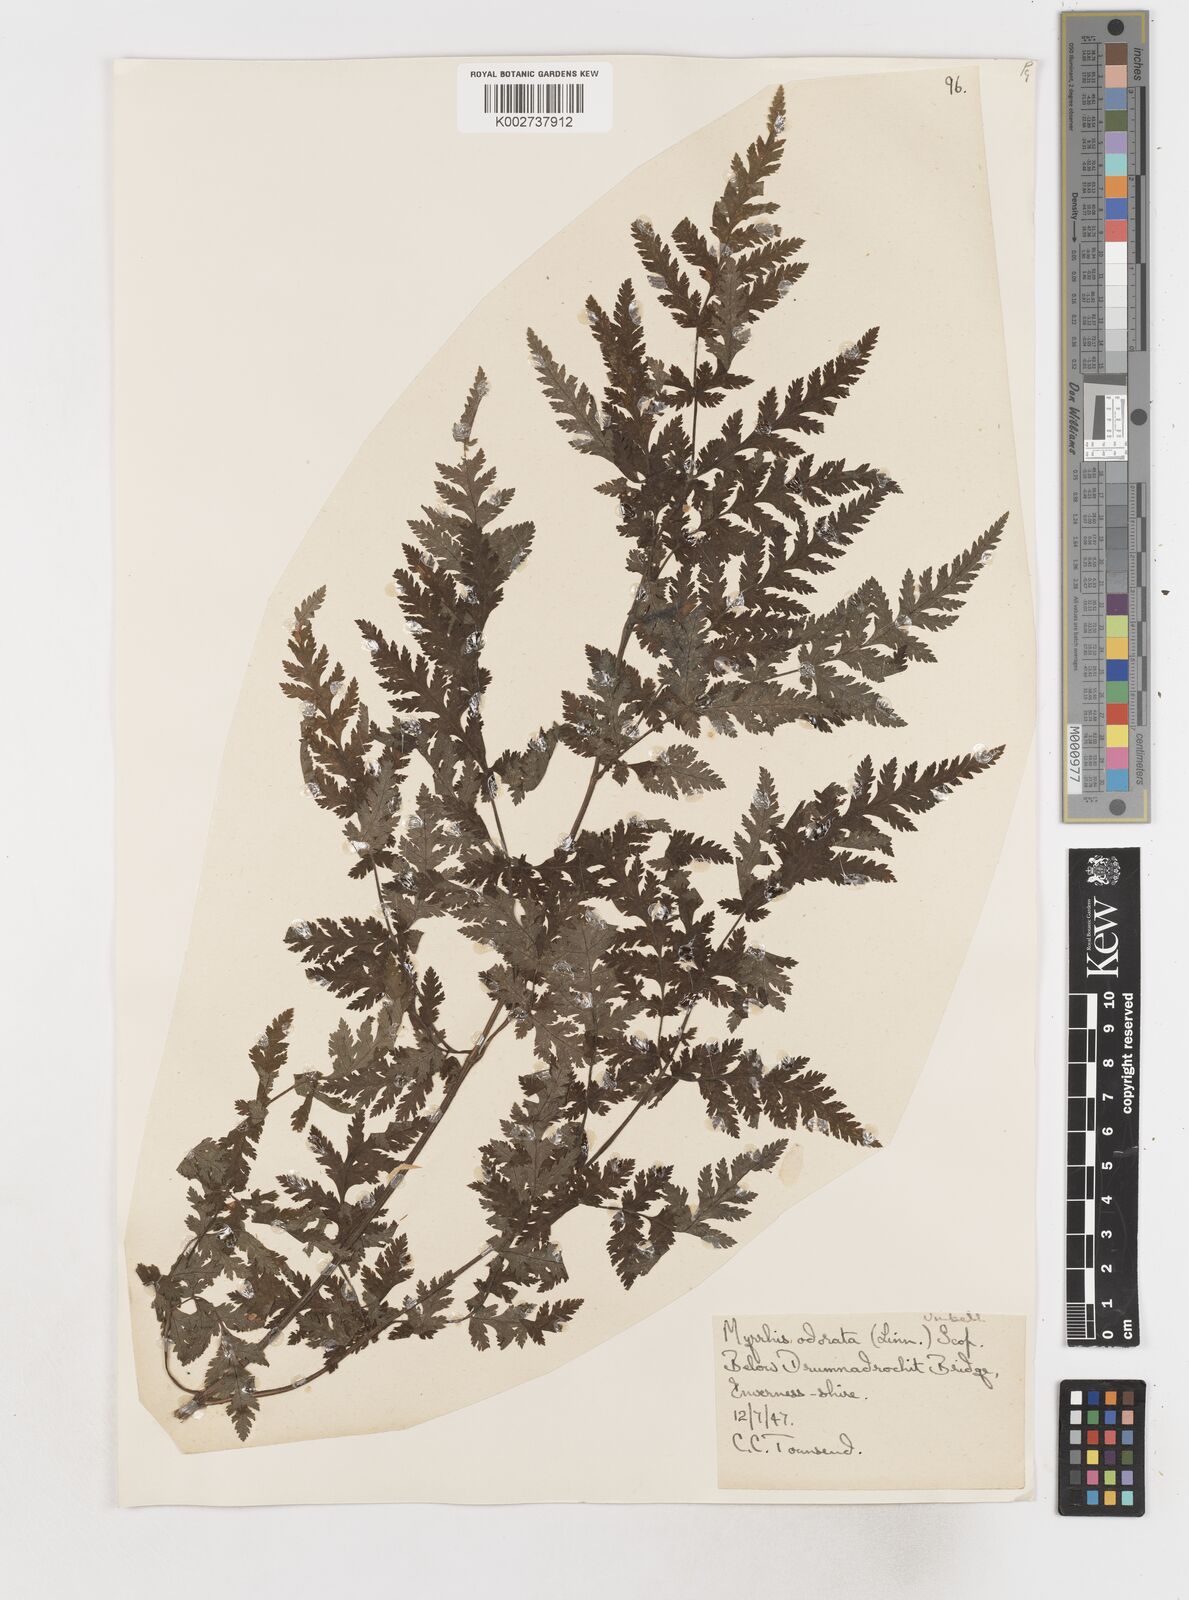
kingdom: Plantae
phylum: Tracheophyta
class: Magnoliopsida
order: Apiales
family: Apiaceae
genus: Myrrhis
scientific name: Myrrhis odorata
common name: Sweet cicely
